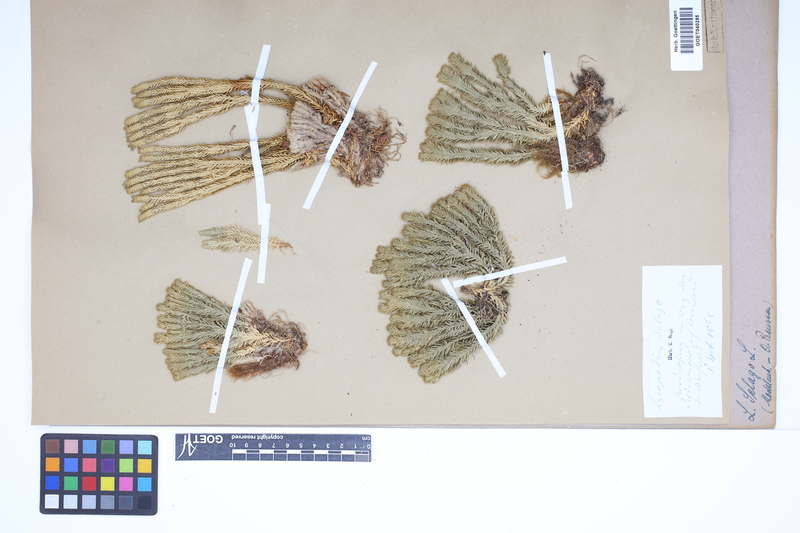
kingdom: Plantae
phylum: Tracheophyta
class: Lycopodiopsida
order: Lycopodiales
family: Lycopodiaceae
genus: Huperzia
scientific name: Huperzia selago
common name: Northern firmoss
